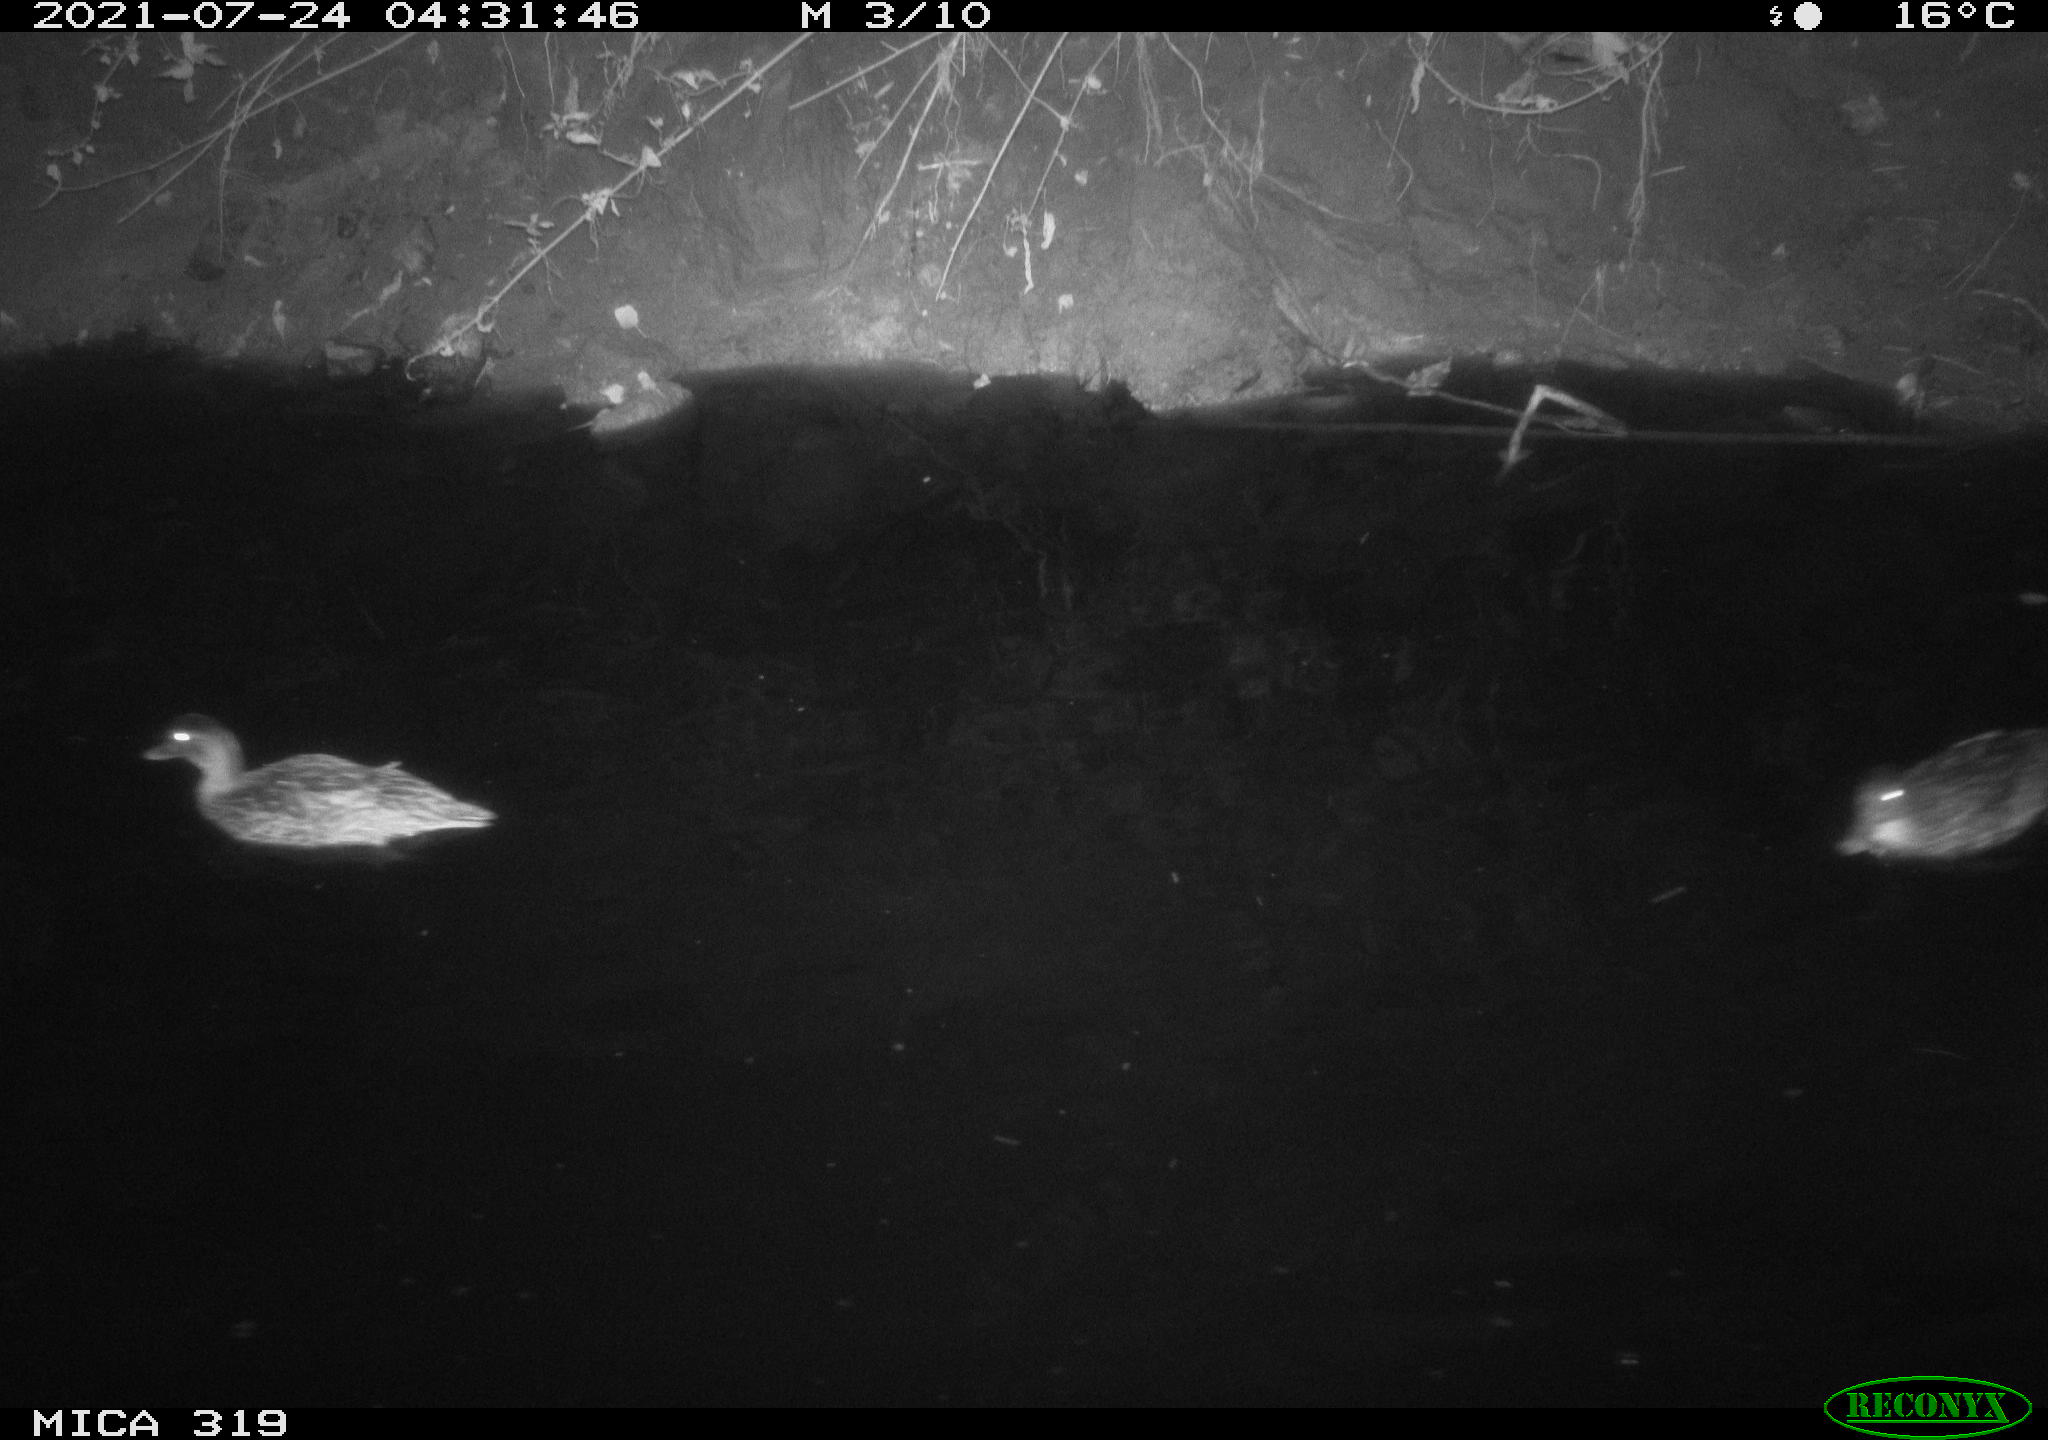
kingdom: Animalia
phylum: Chordata
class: Aves
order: Anseriformes
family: Anatidae
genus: Anas
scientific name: Anas platyrhynchos
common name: Mallard
